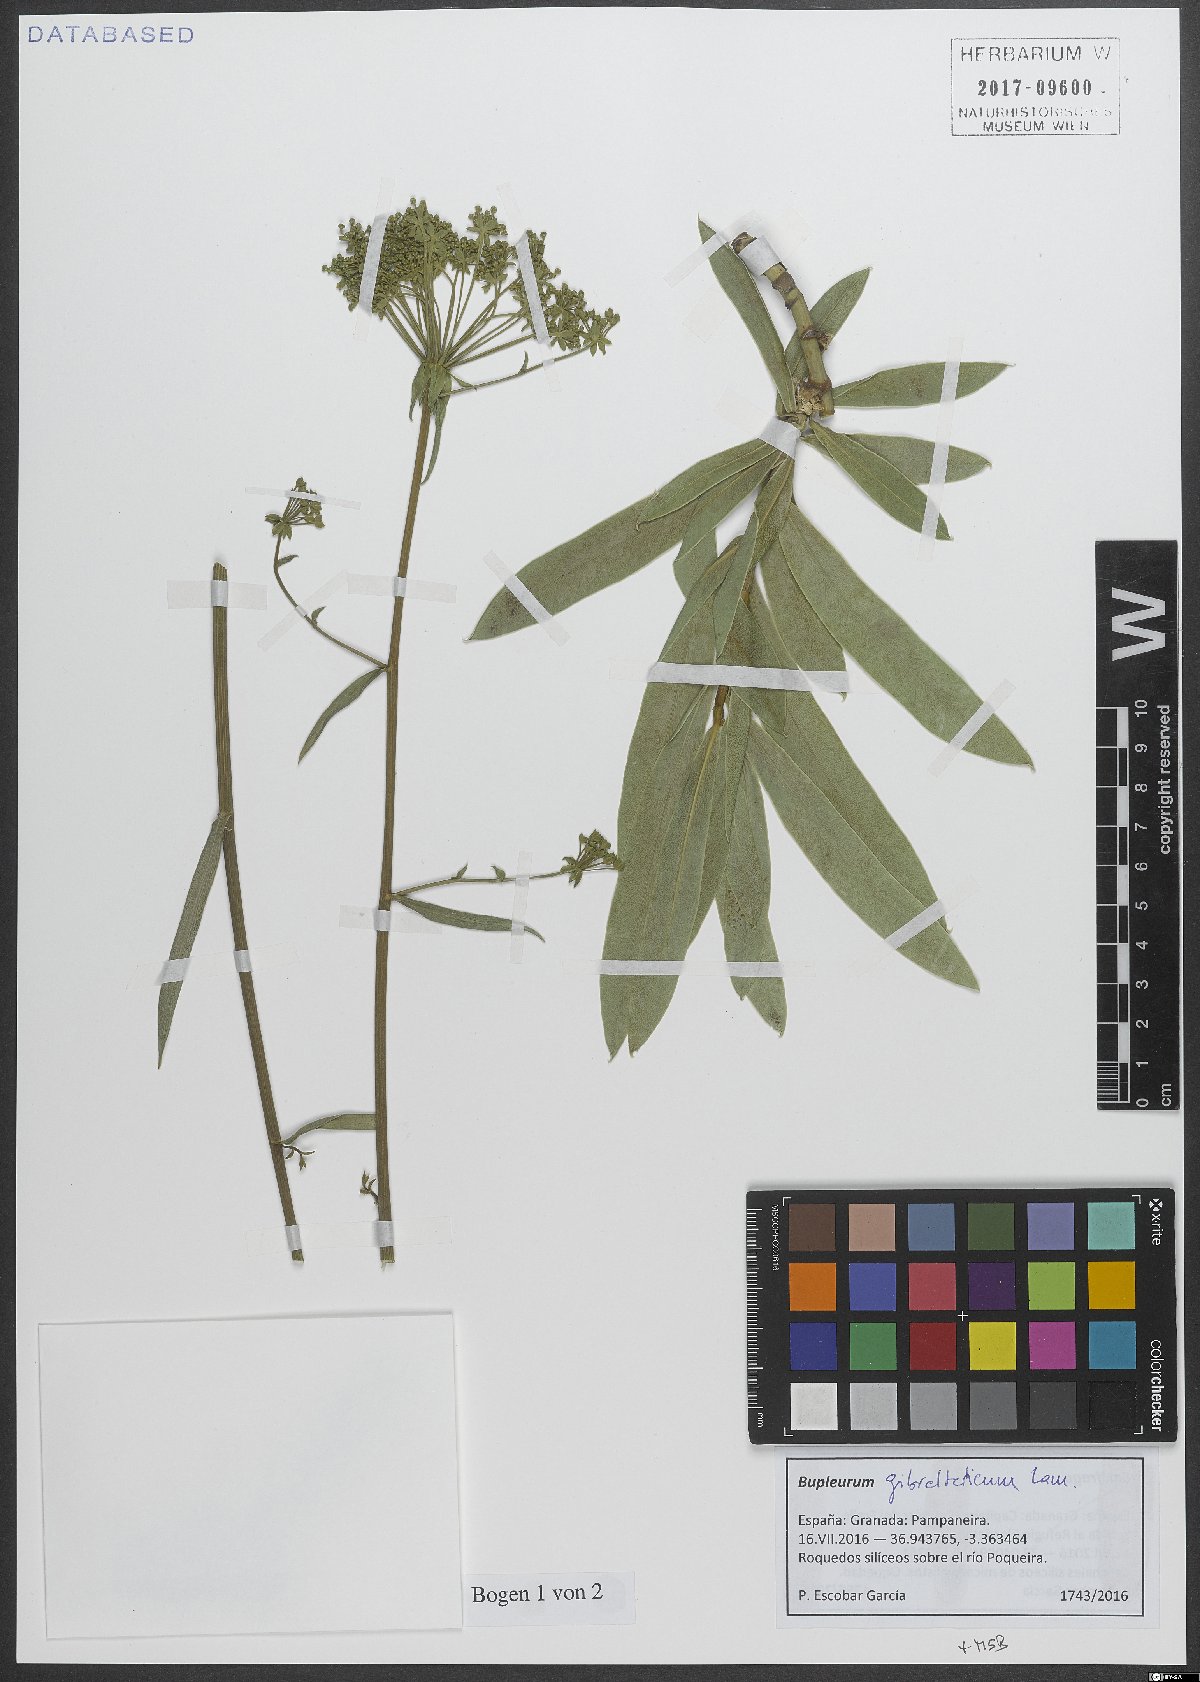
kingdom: Plantae
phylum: Tracheophyta
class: Magnoliopsida
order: Apiales
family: Apiaceae
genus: Bupleurum
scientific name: Bupleurum gibraltaricum
